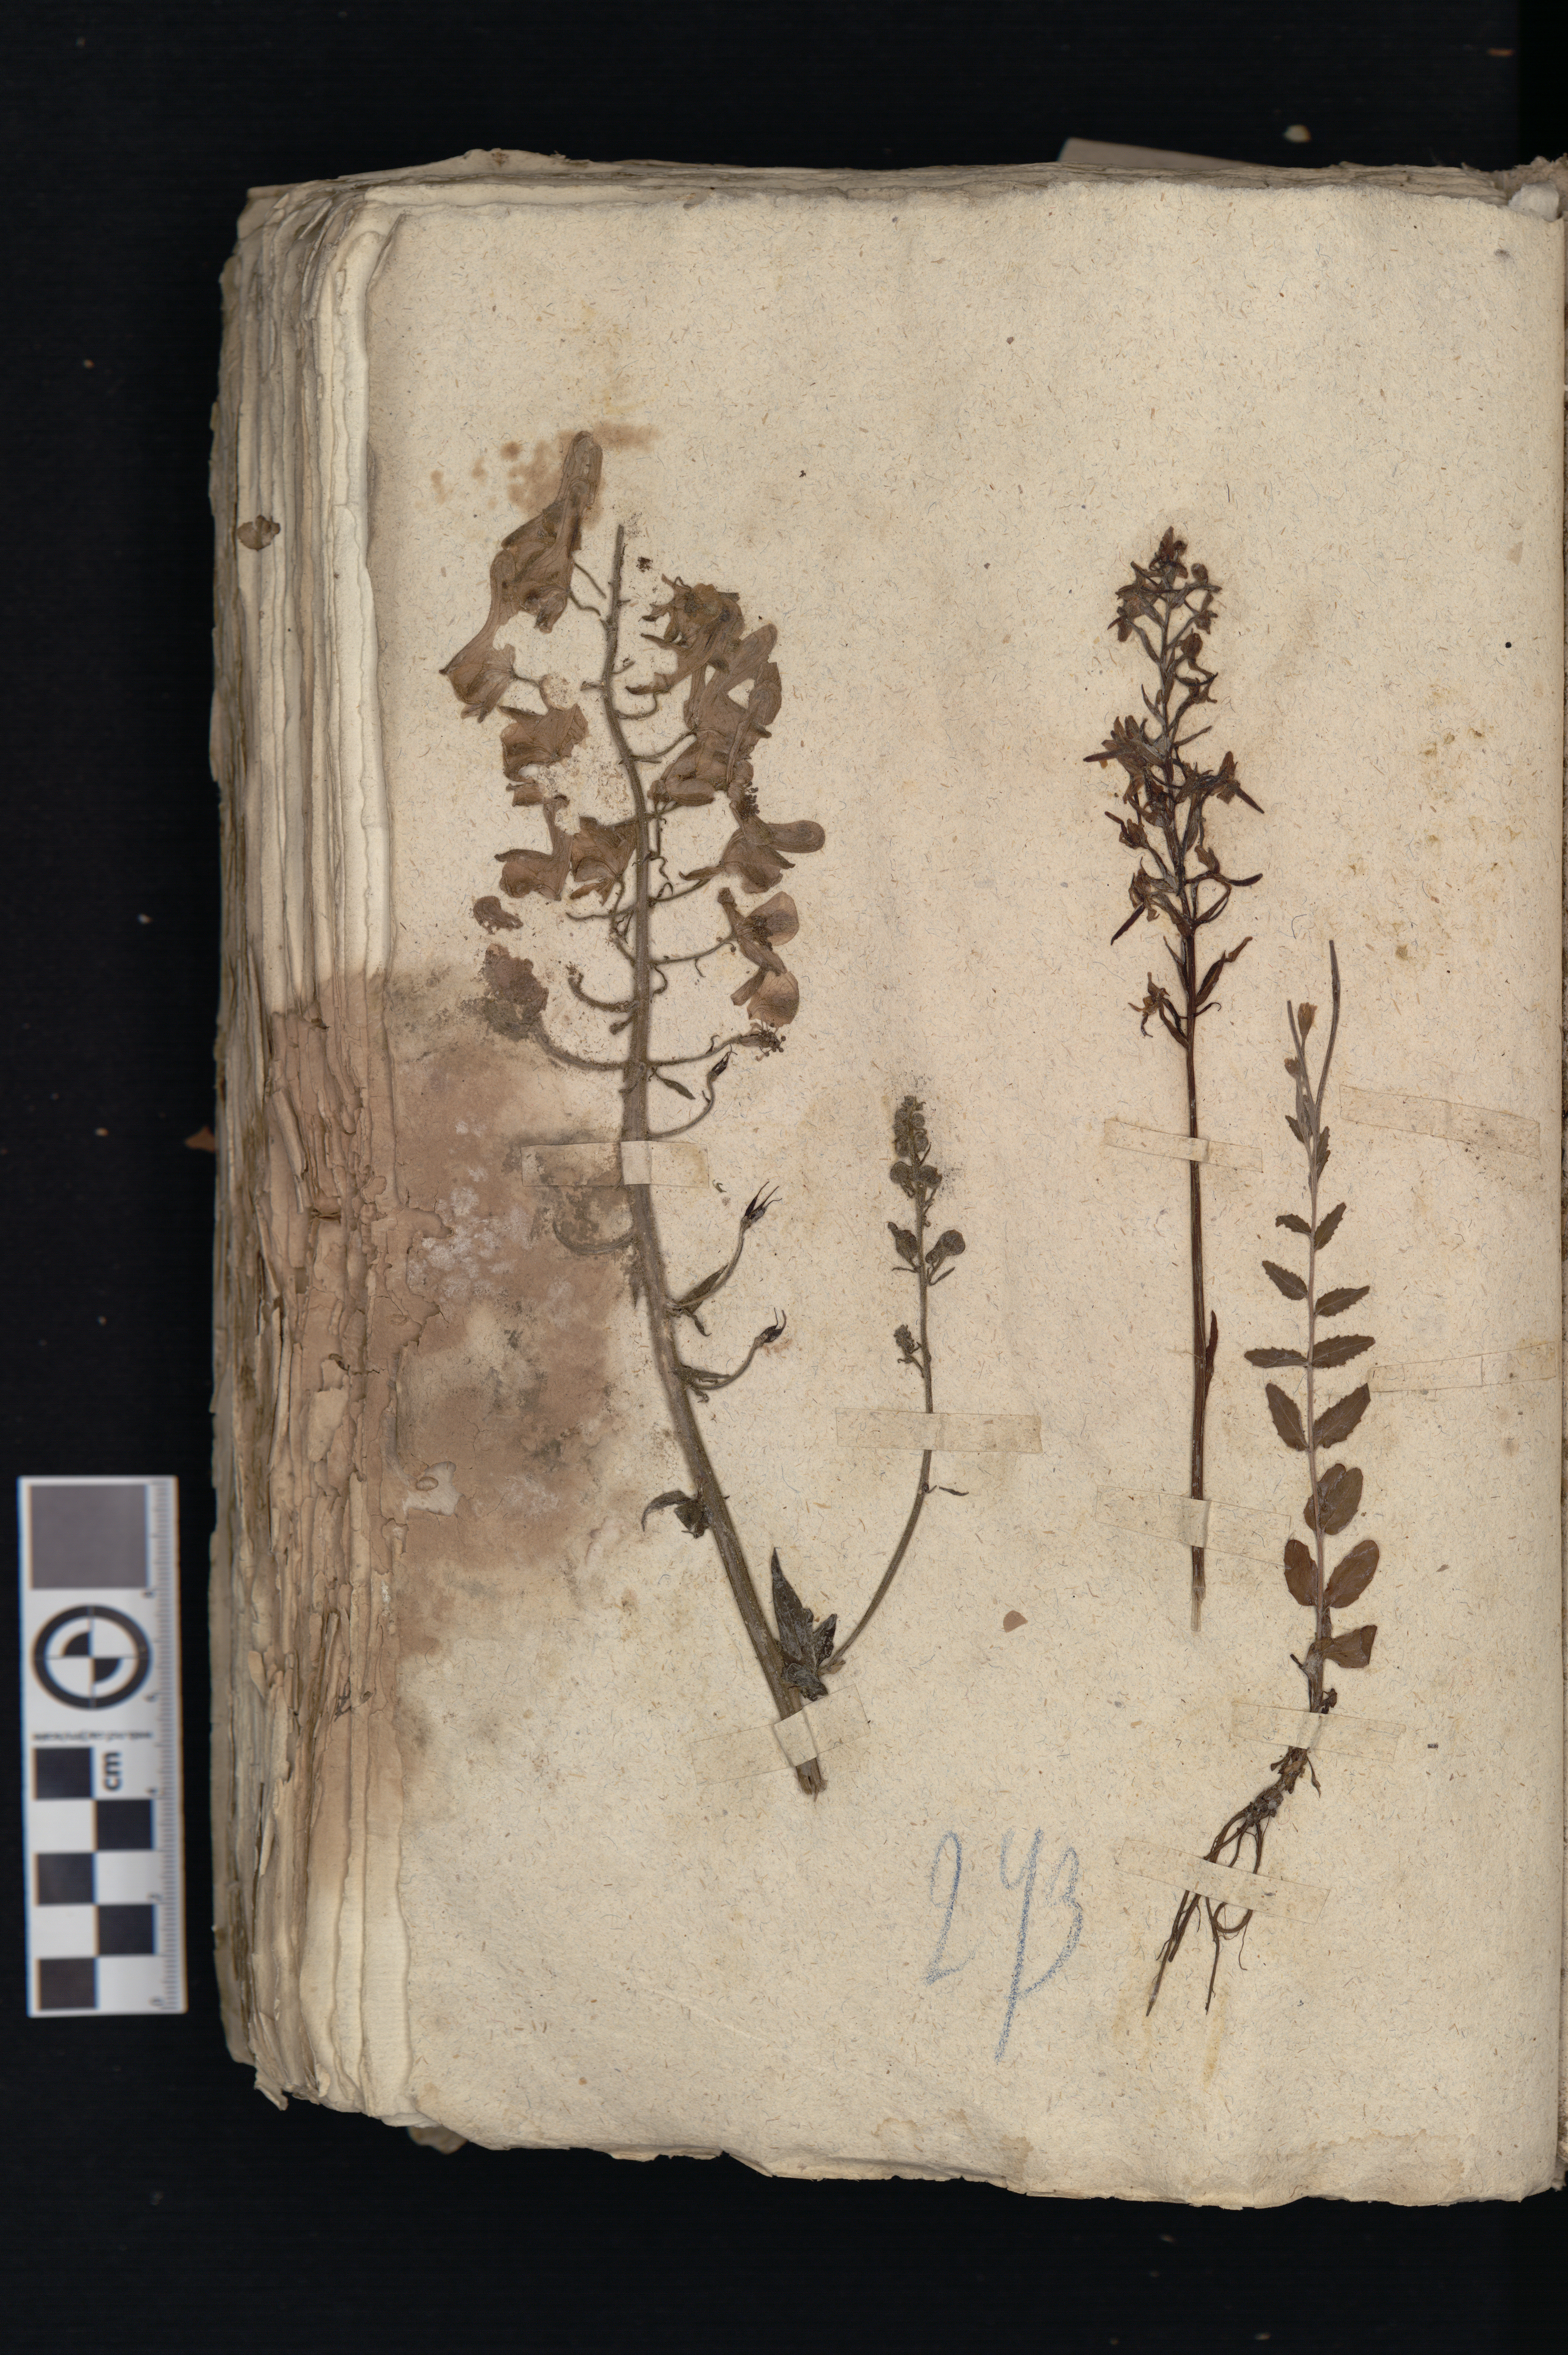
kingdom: Plantae
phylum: Tracheophyta
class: Magnoliopsida
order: Ranunculales
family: Ranunculaceae
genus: Aconitum
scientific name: Aconitum septentrionale
